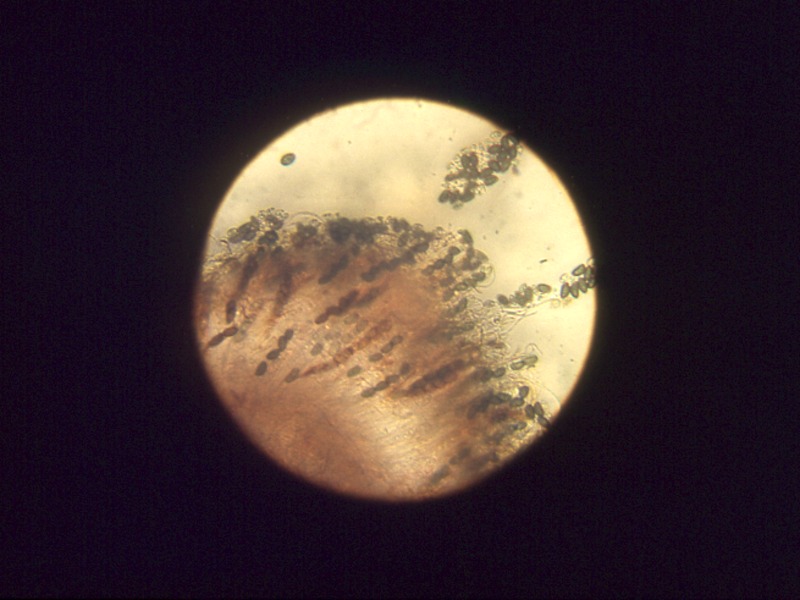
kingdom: Plantae
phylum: Tracheophyta
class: Magnoliopsida
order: Fagales
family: Fagaceae
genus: Quercus
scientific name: Quercus
